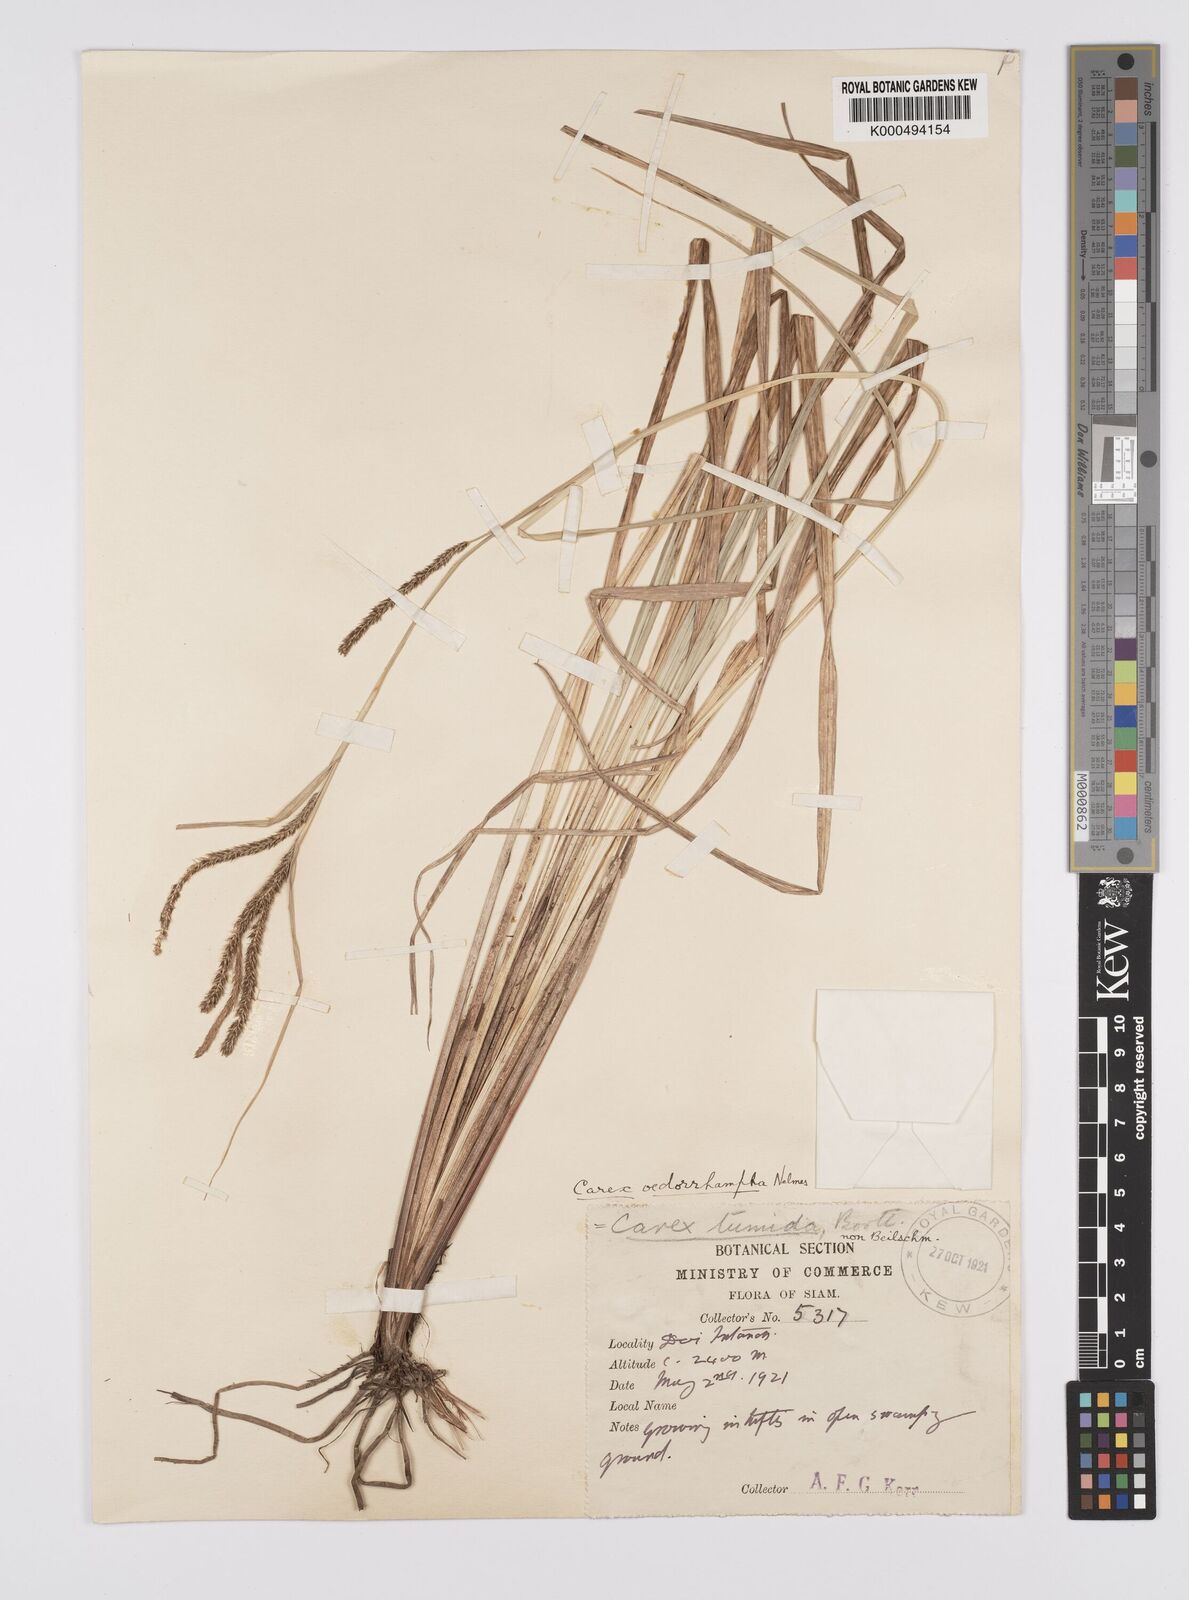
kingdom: Plantae
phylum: Tracheophyta
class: Liliopsida
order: Poales
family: Cyperaceae
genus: Carex
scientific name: Carex tumida
